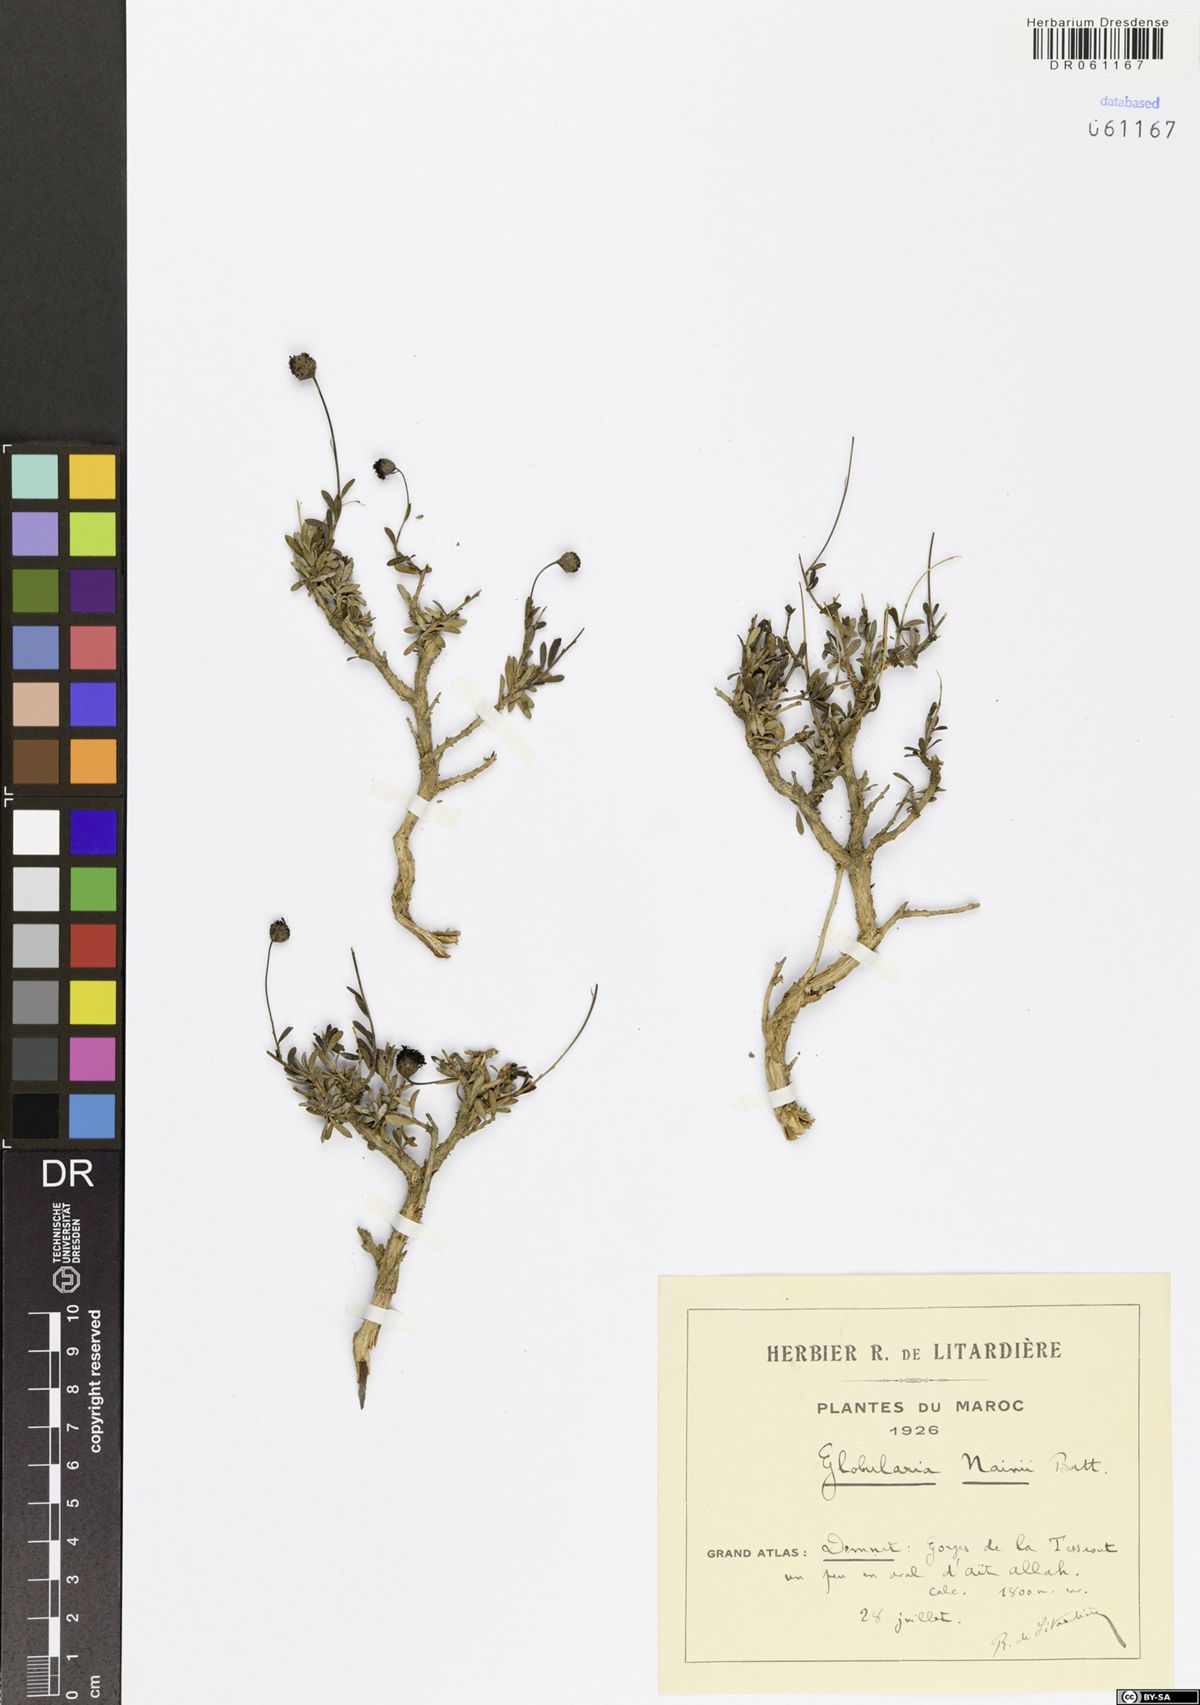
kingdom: Plantae
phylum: Tracheophyta
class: Magnoliopsida
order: Lamiales
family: Plantaginaceae
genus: Globularia
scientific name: Globularia nainii
